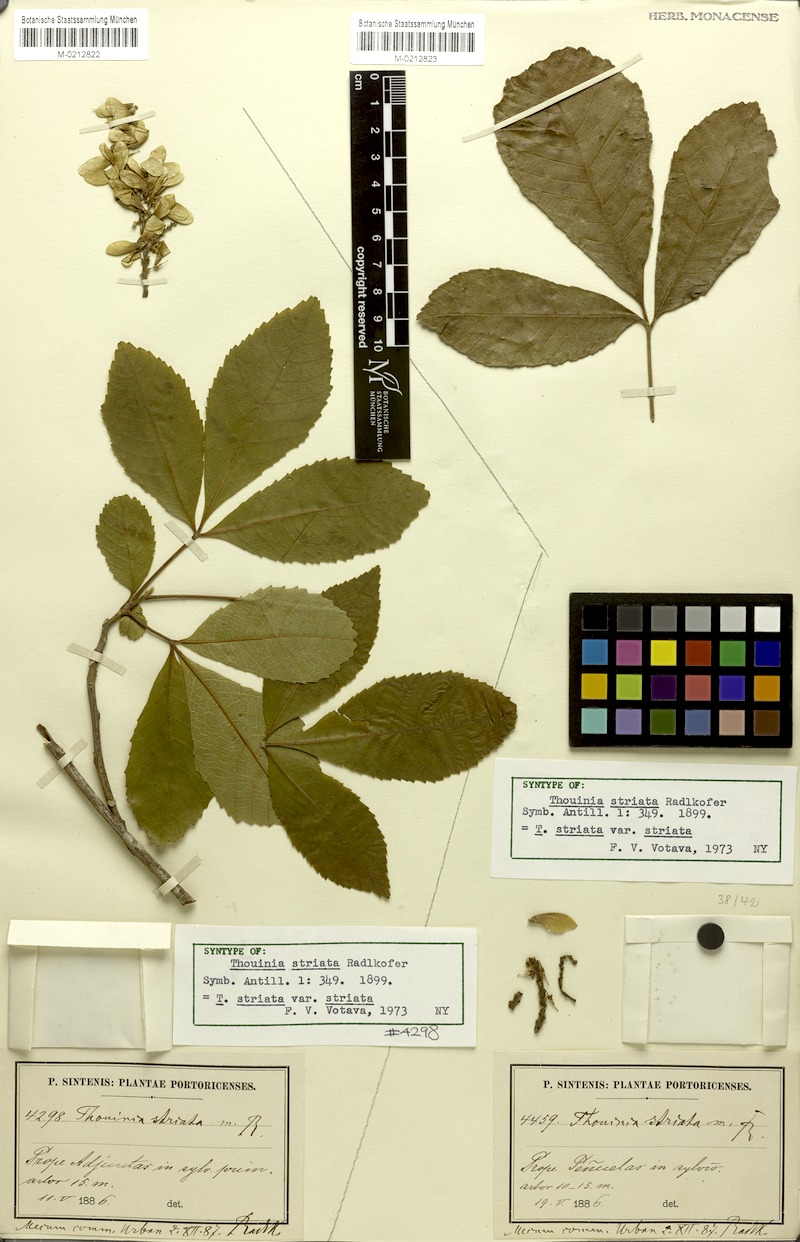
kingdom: Plantae
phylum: Tracheophyta
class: Magnoliopsida
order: Sapindales
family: Sapindaceae
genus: Thouinia
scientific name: Thouinia striata
